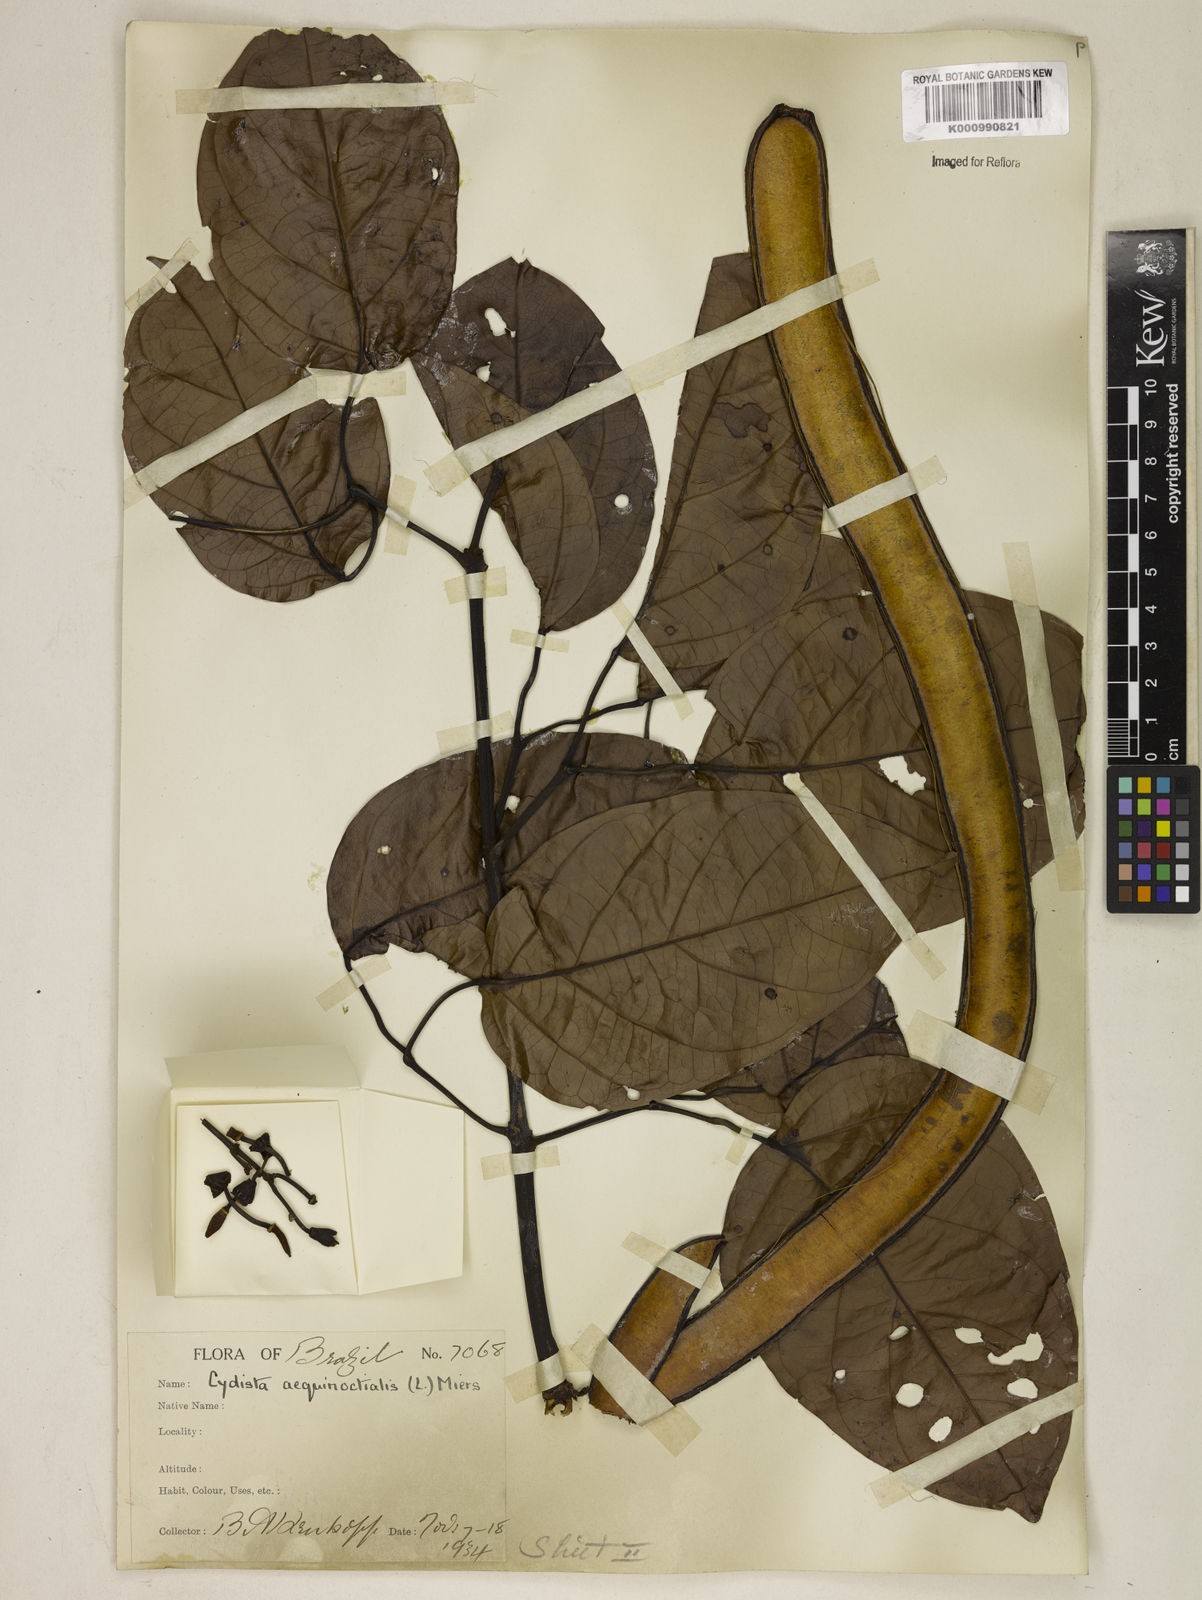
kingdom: Plantae
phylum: Tracheophyta
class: Magnoliopsida
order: Lamiales
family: Bignoniaceae
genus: Bignonia
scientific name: Bignonia aequinoctialis
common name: Garlicvine
